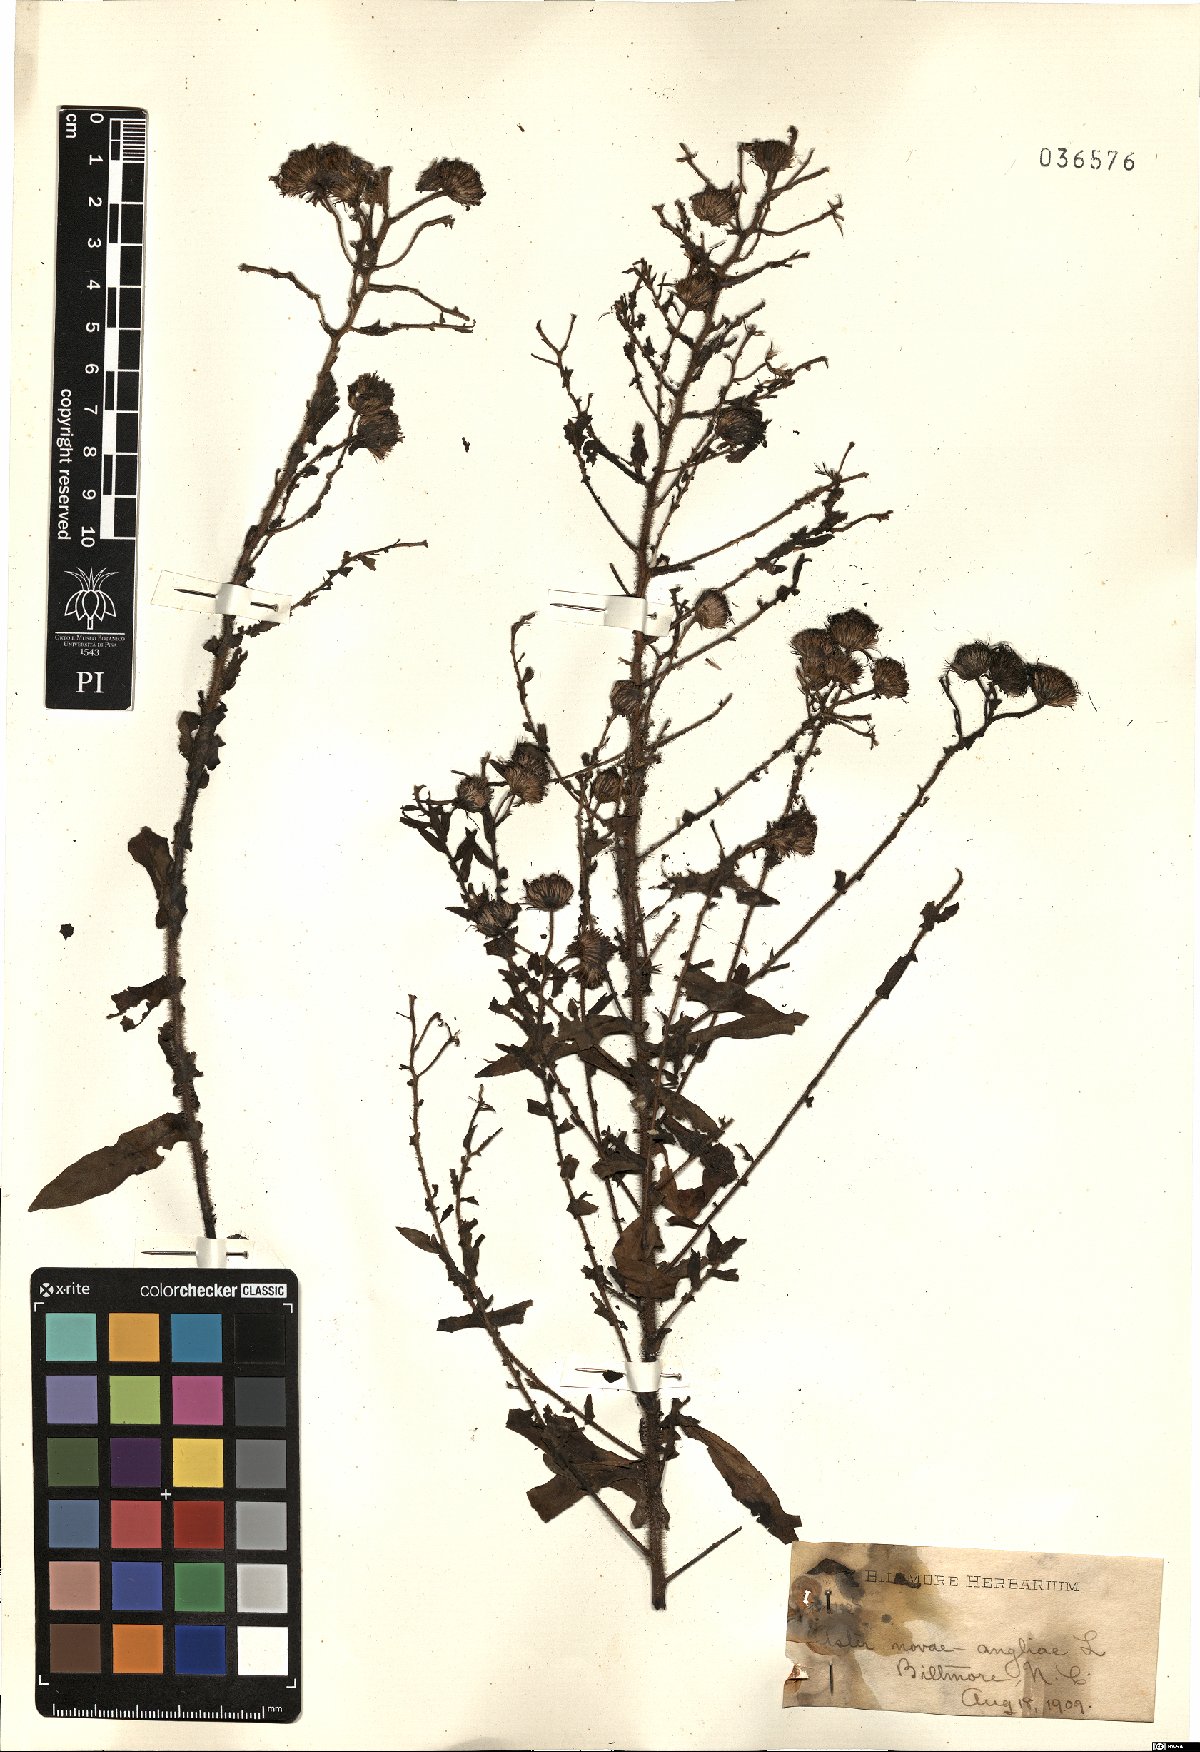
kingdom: Plantae
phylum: Tracheophyta
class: Magnoliopsida
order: Asterales
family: Asteraceae
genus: Symphyotrichum
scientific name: Symphyotrichum novae-angliae
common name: Michaelmas daisy
